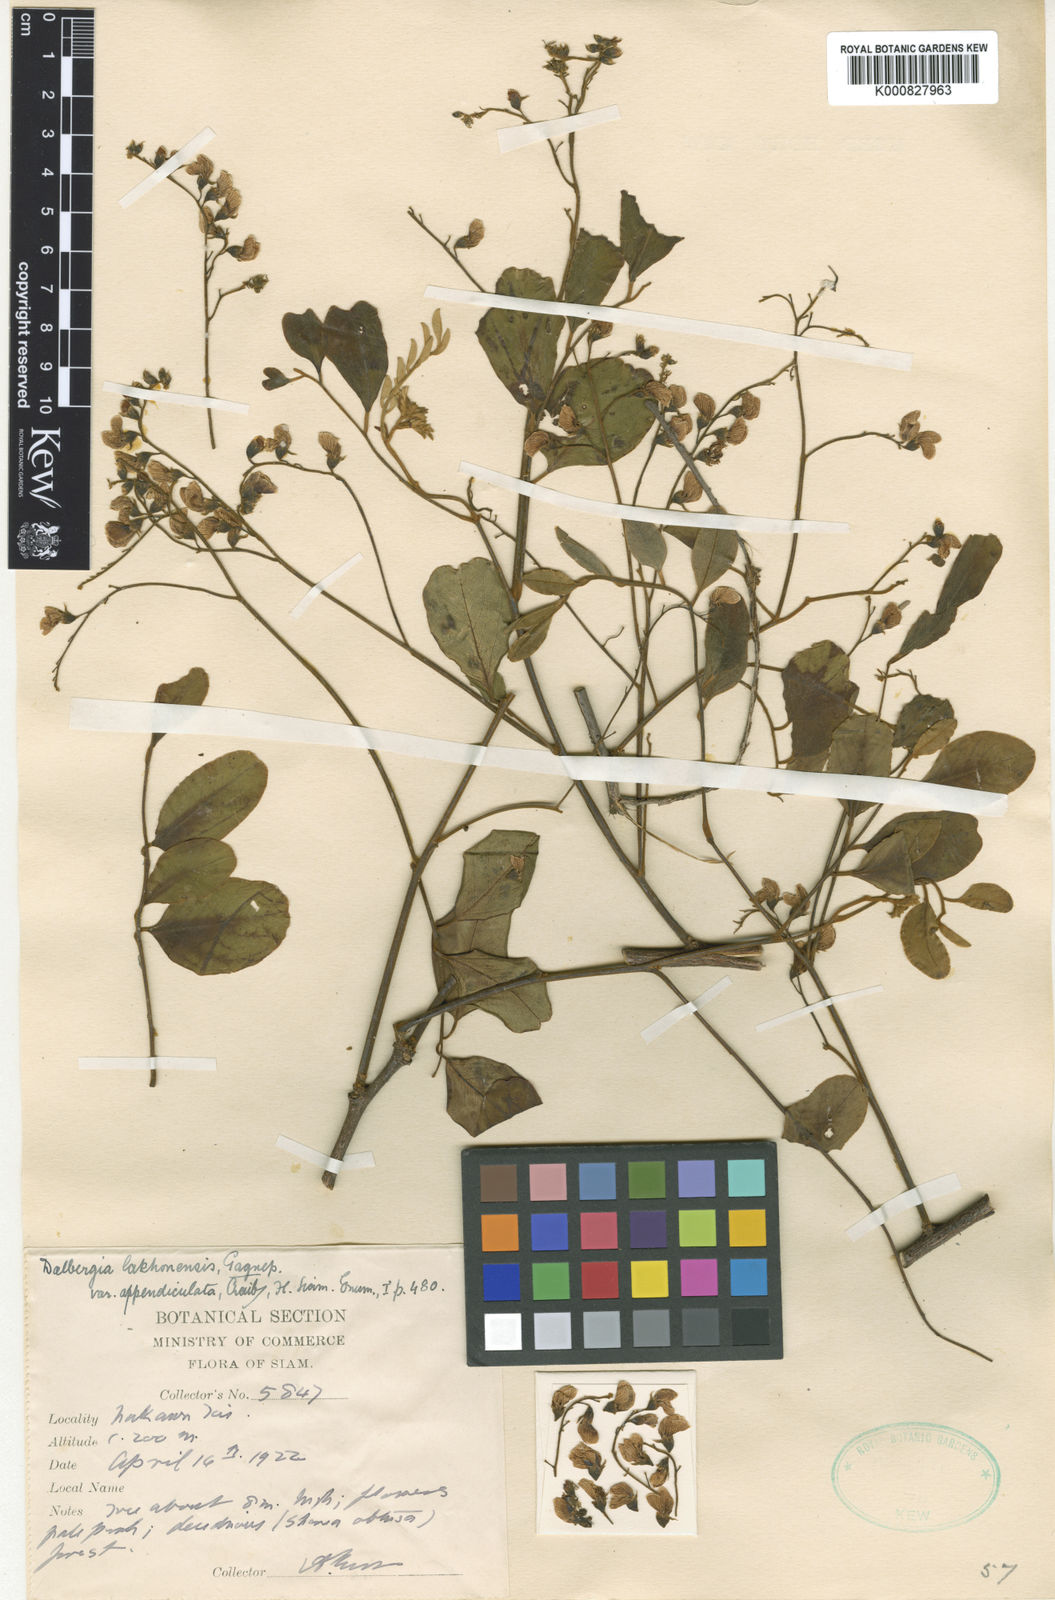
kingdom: Plantae
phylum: Tracheophyta
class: Magnoliopsida
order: Fabales
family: Fabaceae
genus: Dalbergia
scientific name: Dalbergia lanceolaria
